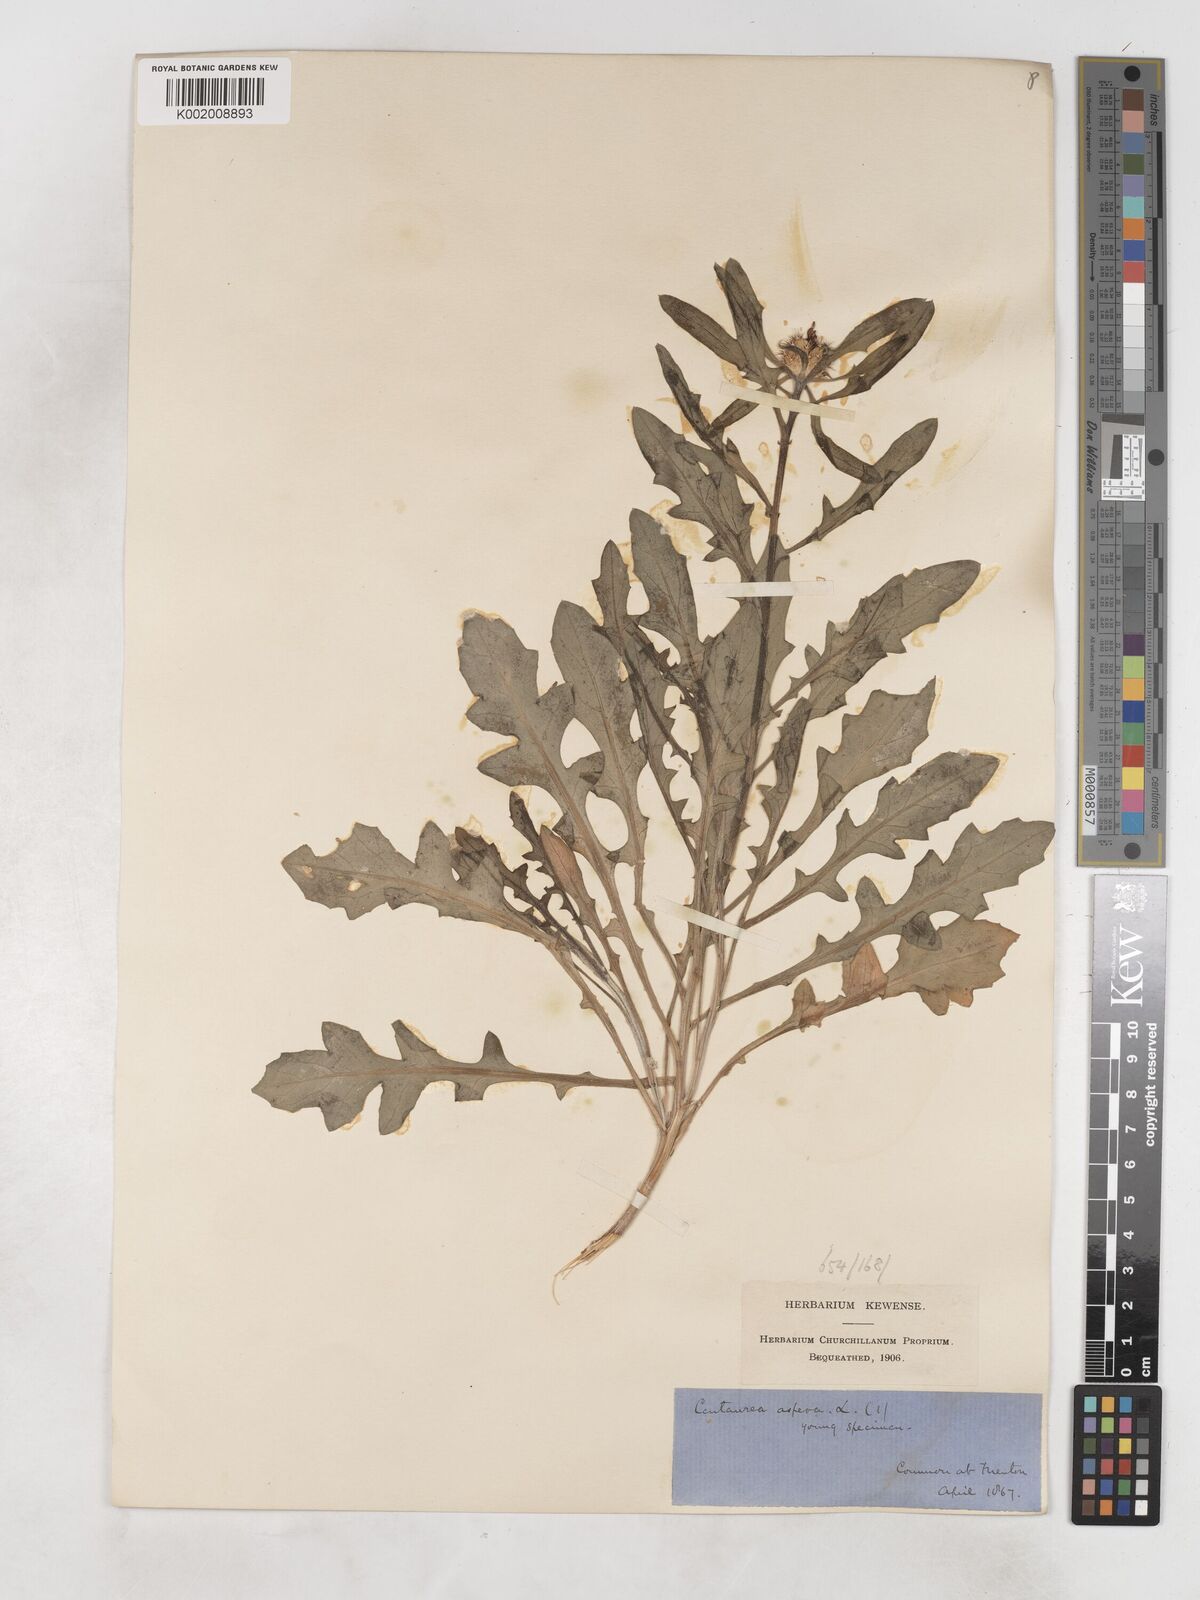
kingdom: Plantae
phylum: Tracheophyta
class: Magnoliopsida
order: Asterales
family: Asteraceae
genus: Centaurea
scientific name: Centaurea aspera
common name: Rough star-thistle
